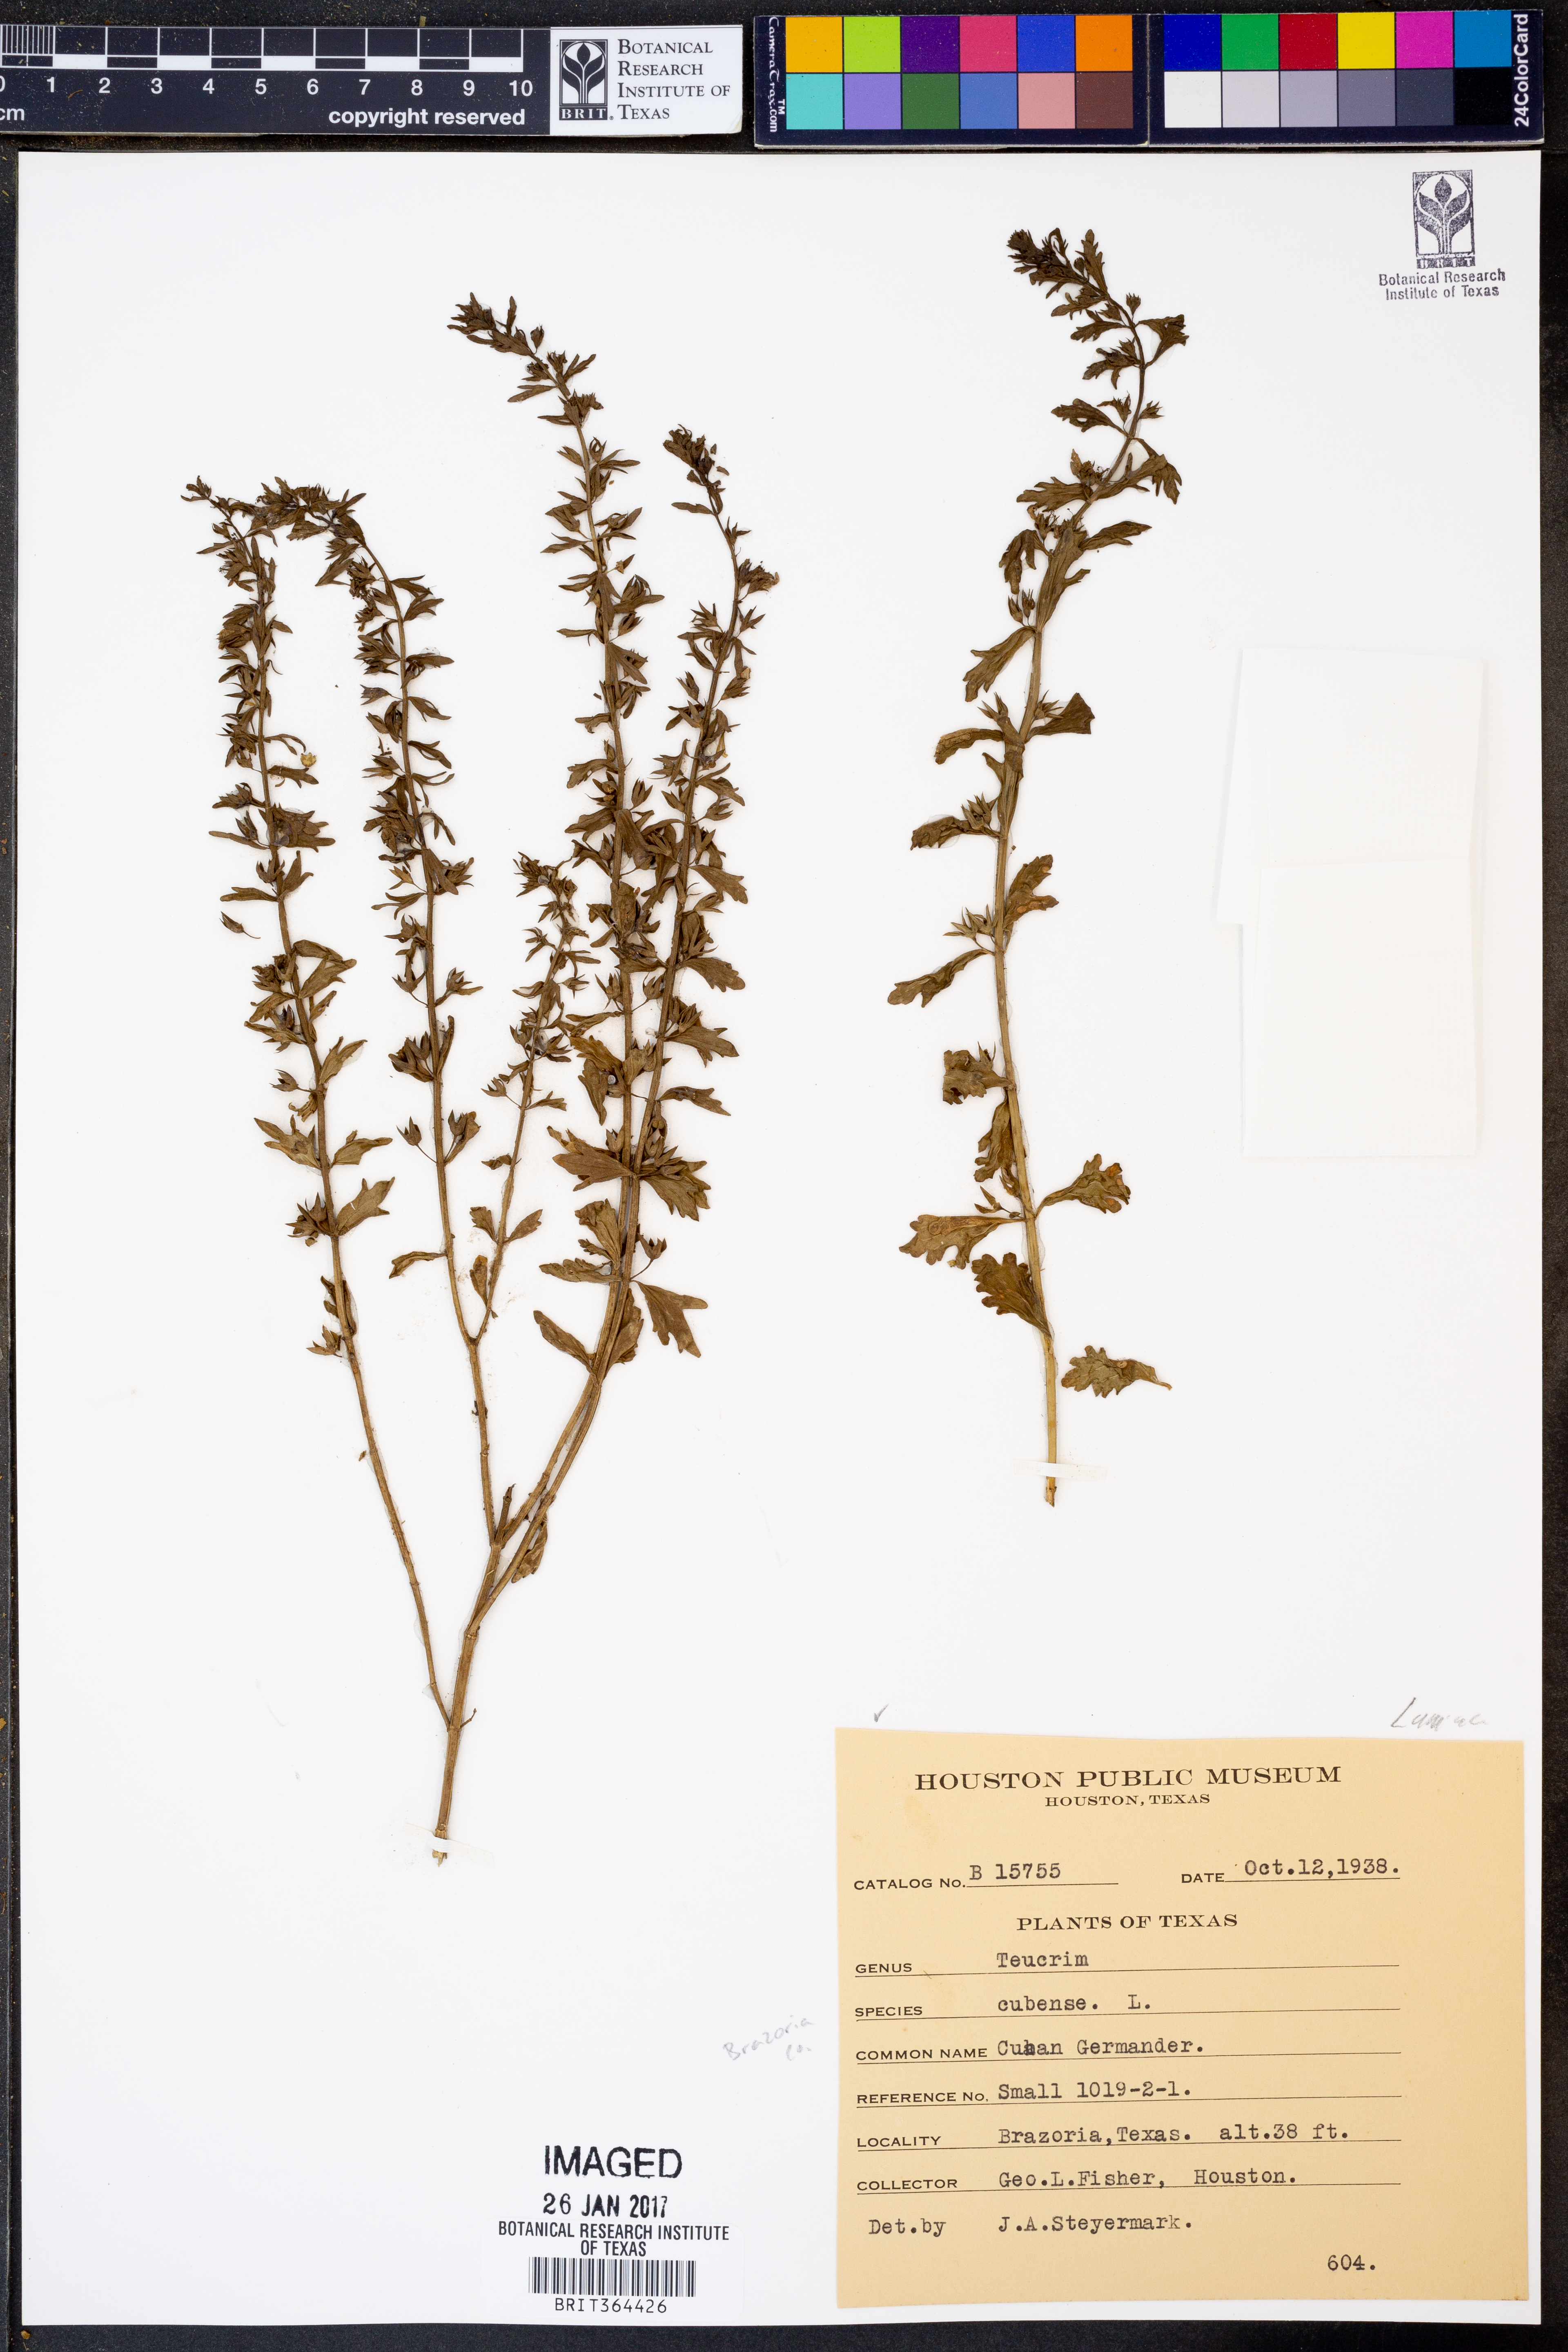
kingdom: Plantae
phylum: Tracheophyta
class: Magnoliopsida
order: Lamiales
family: Lamiaceae
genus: Teucrium
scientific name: Teucrium cubense
